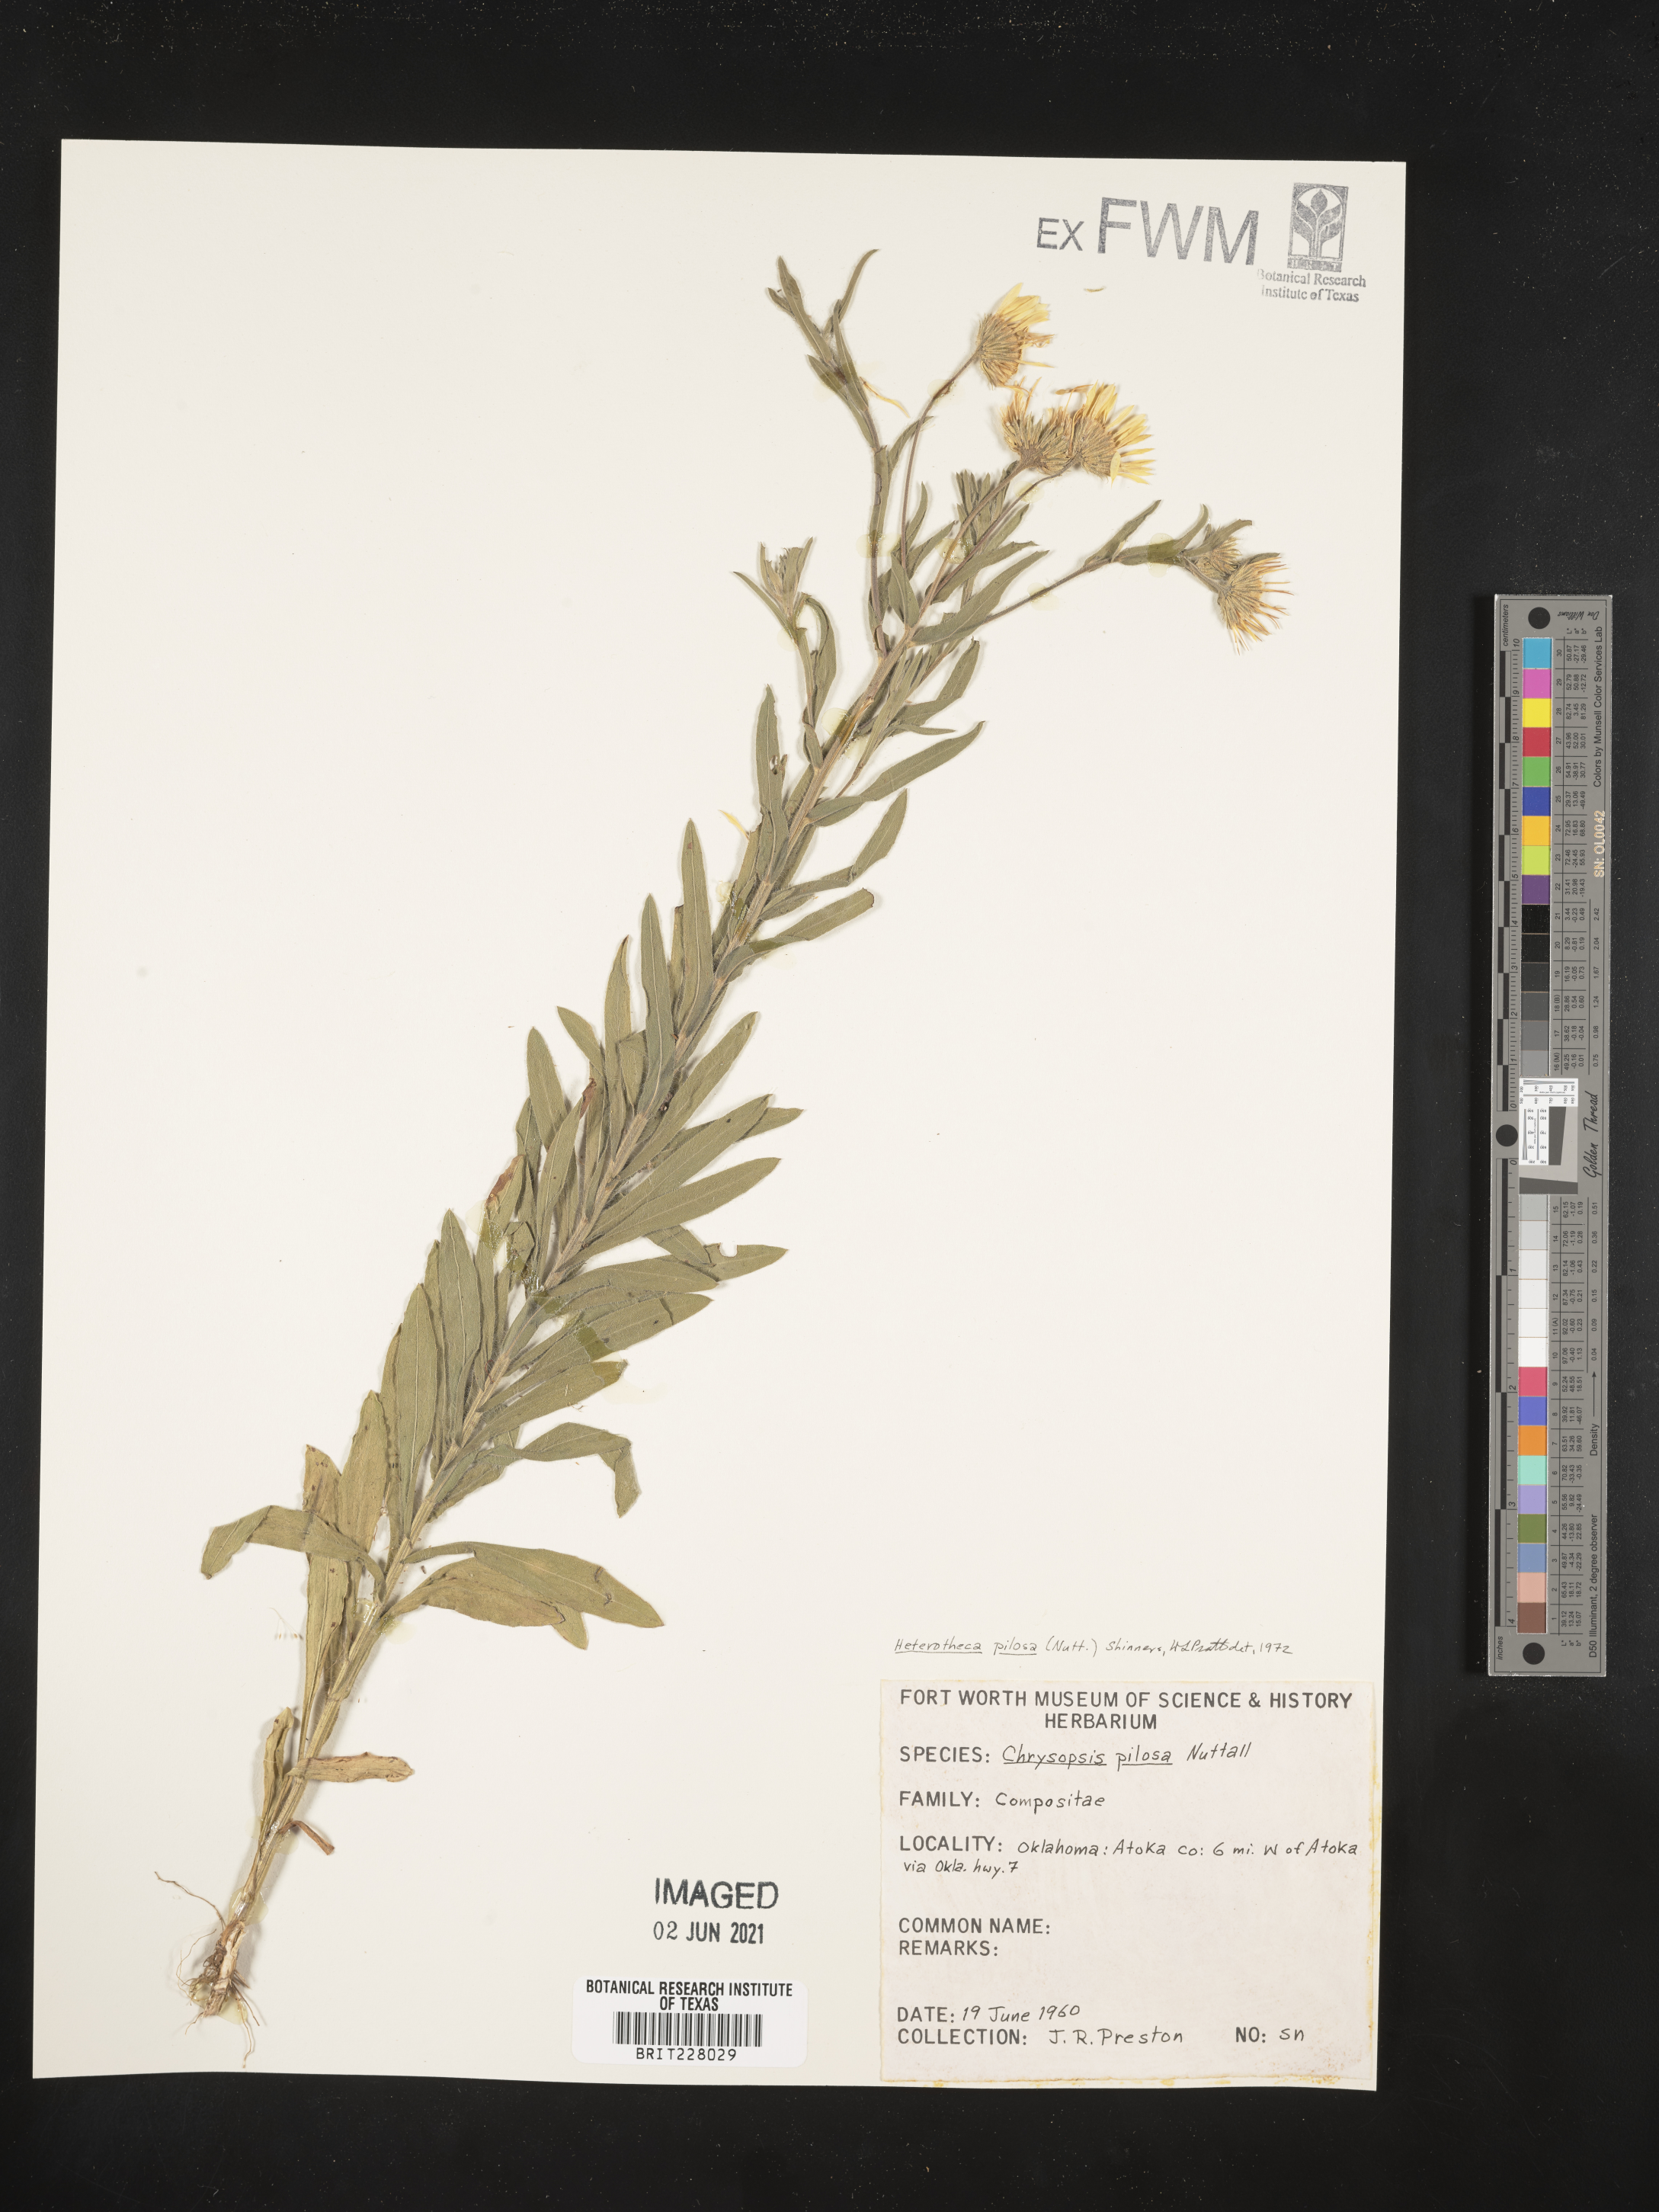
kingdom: Plantae
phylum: Tracheophyta
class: Magnoliopsida
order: Asterales
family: Asteraceae
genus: Bradburia
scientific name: Bradburia pilosa
